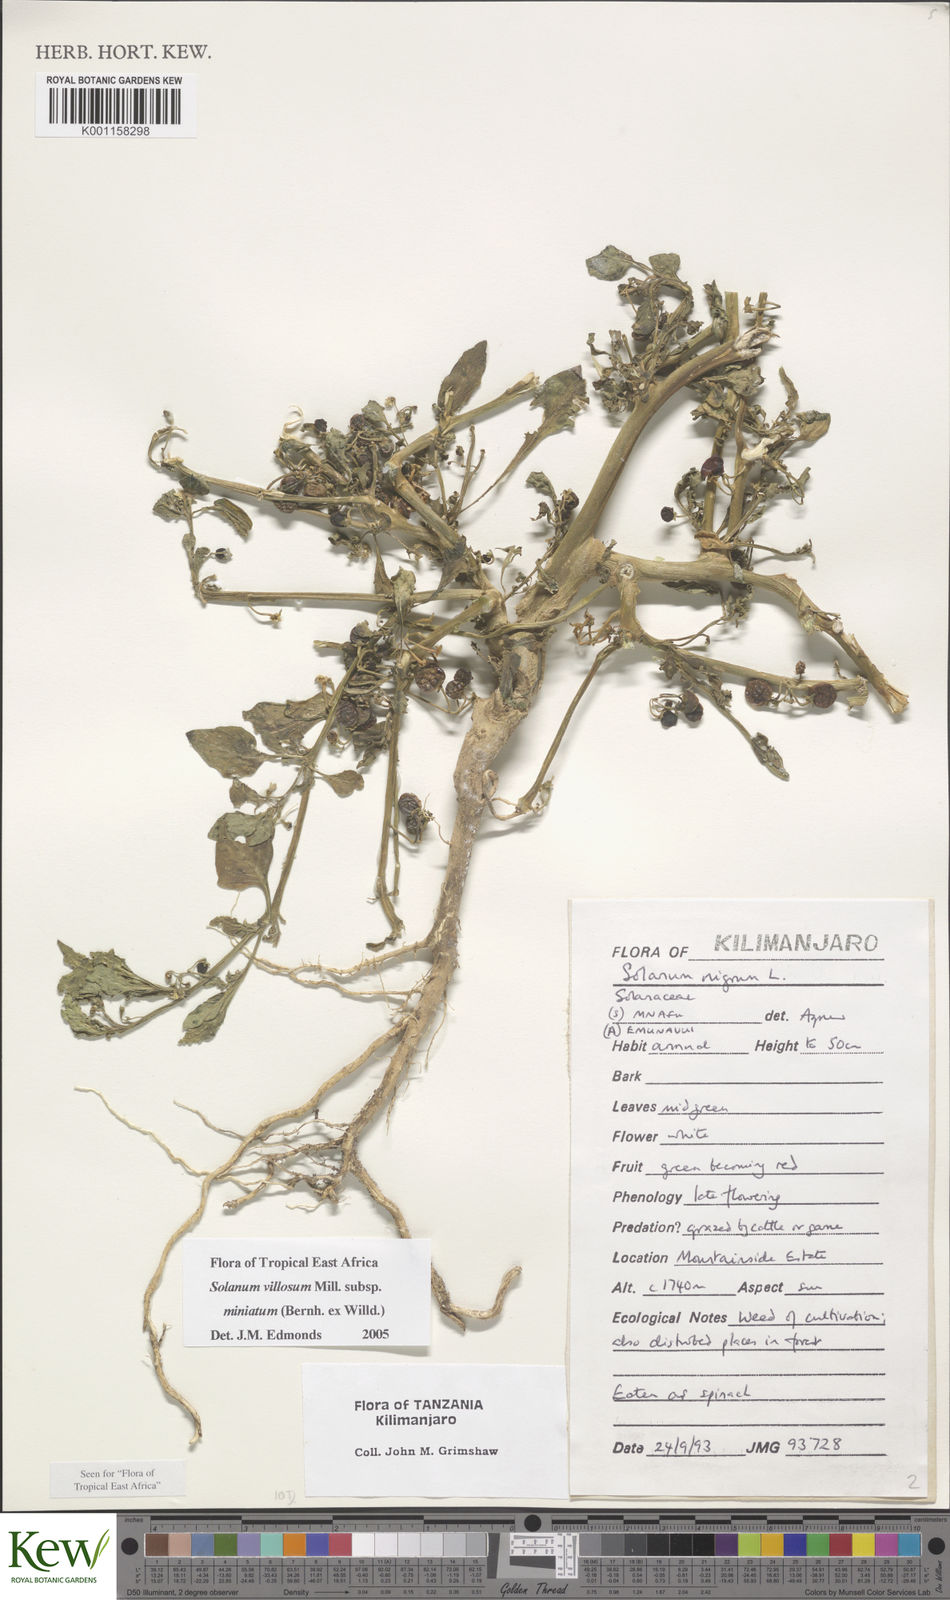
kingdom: Plantae
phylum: Tracheophyta
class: Magnoliopsida
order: Solanales
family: Solanaceae
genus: Solanum
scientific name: Solanum villosum
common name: Red nightshade
